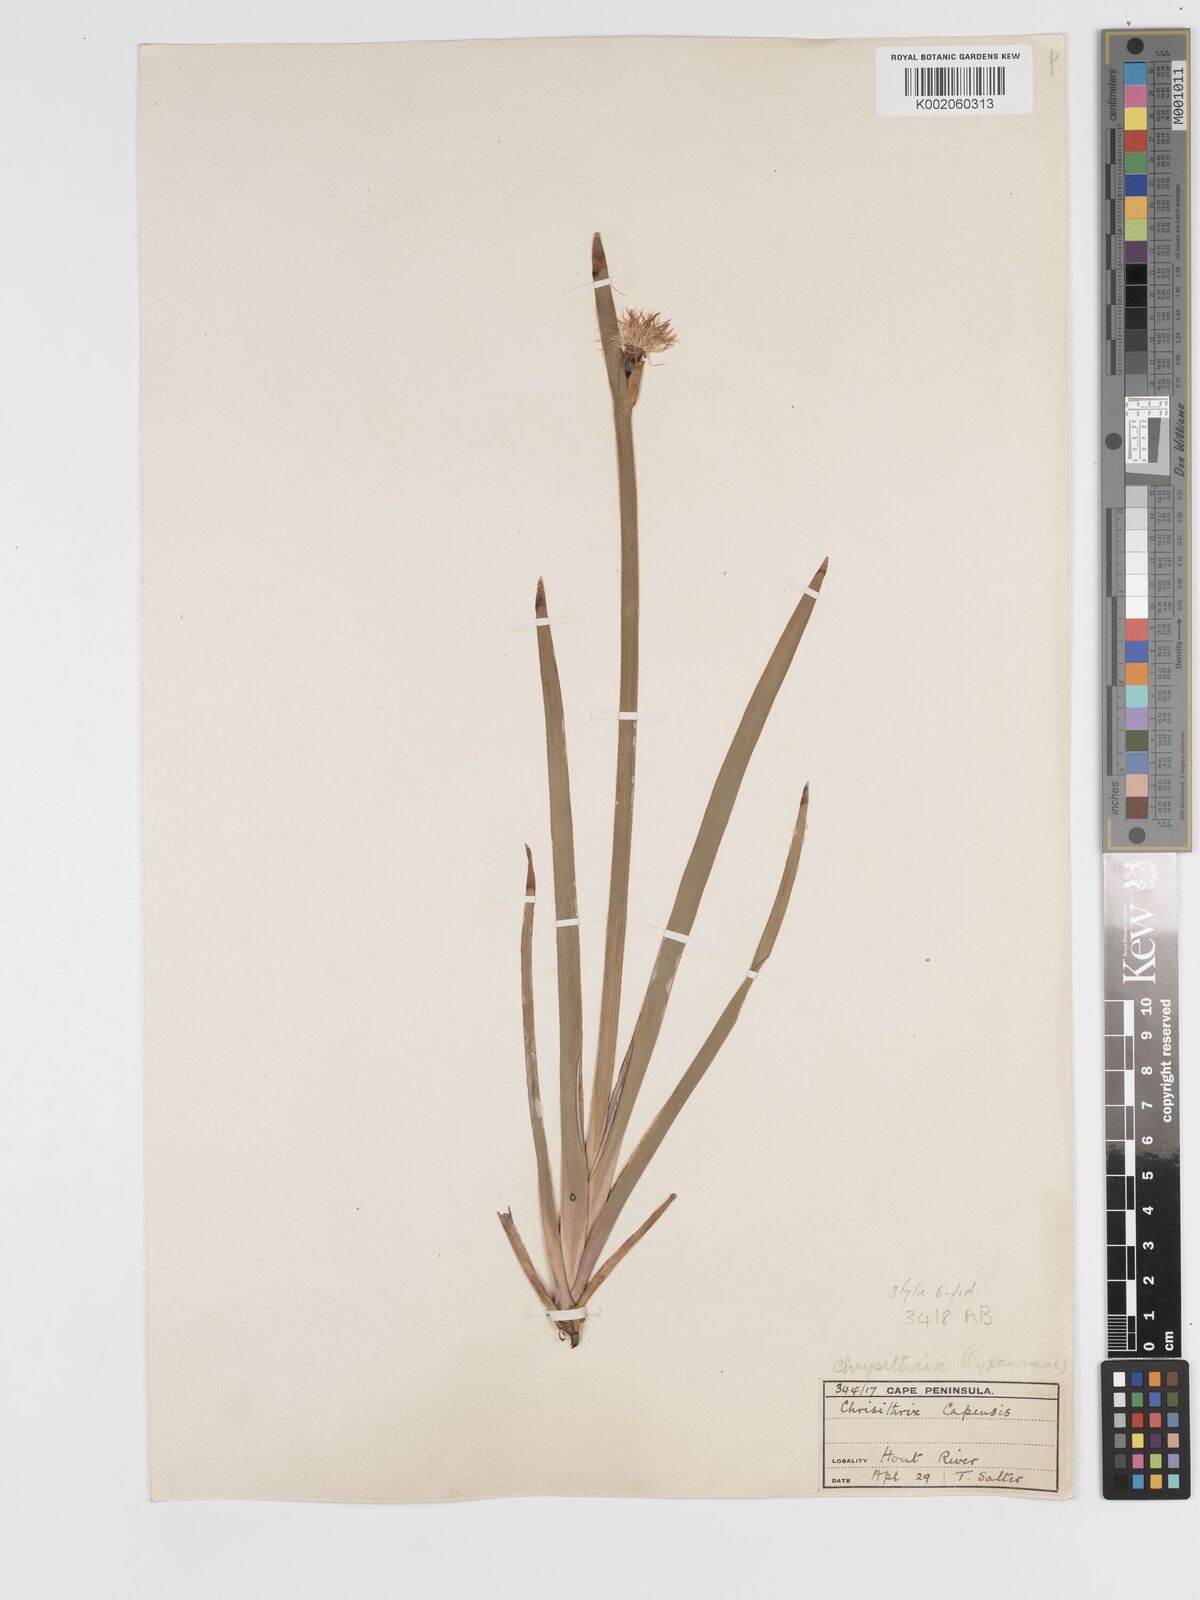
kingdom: Plantae
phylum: Tracheophyta
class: Liliopsida
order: Poales
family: Cyperaceae
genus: Chrysitrix
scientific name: Chrysitrix capensis
